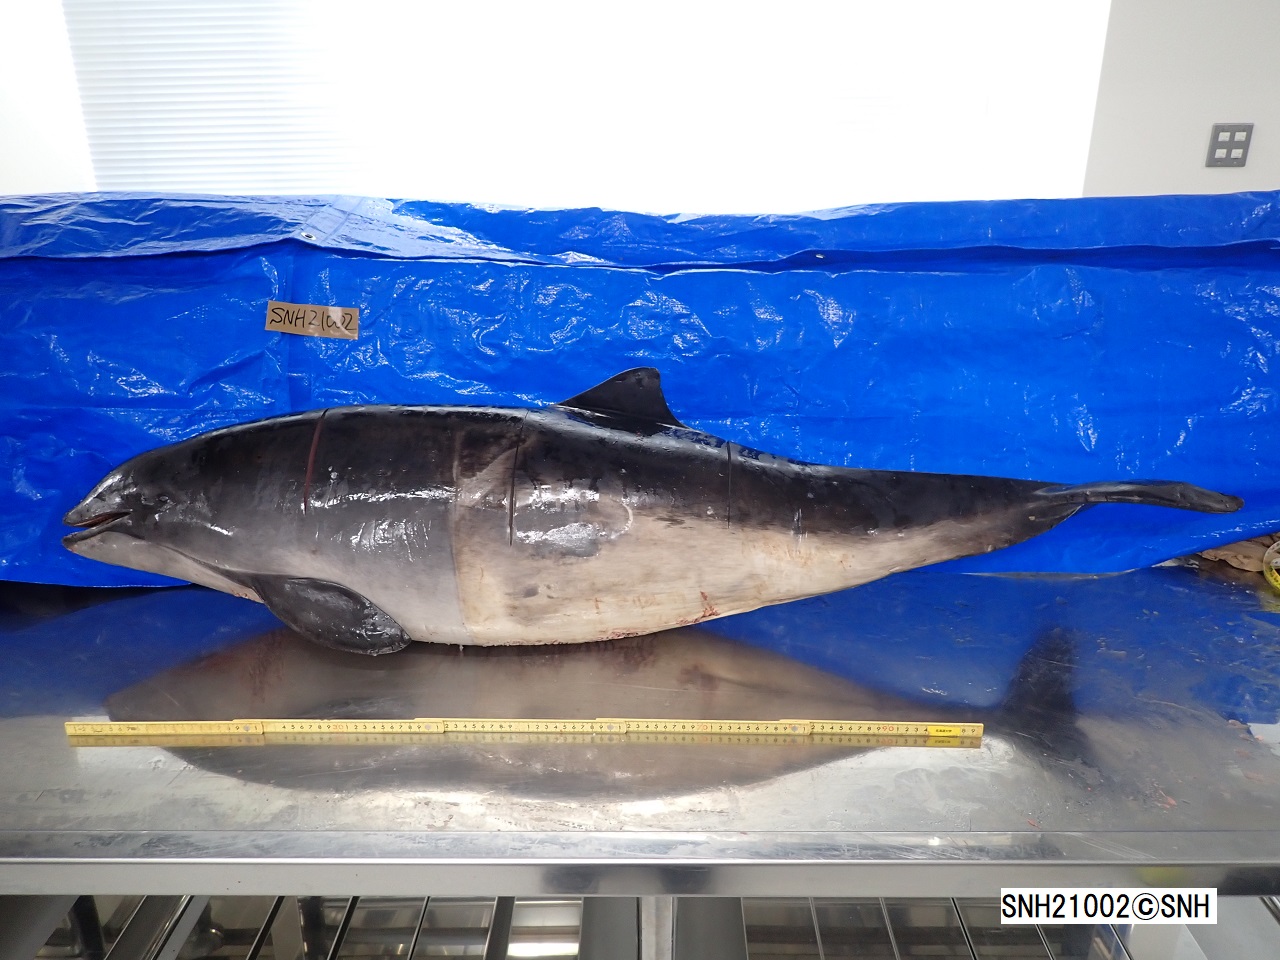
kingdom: Animalia
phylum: Chordata
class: Mammalia
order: Cetacea
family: Phocoenidae
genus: Phocoena
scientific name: Phocoena phocoena
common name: Harbour porpoise
